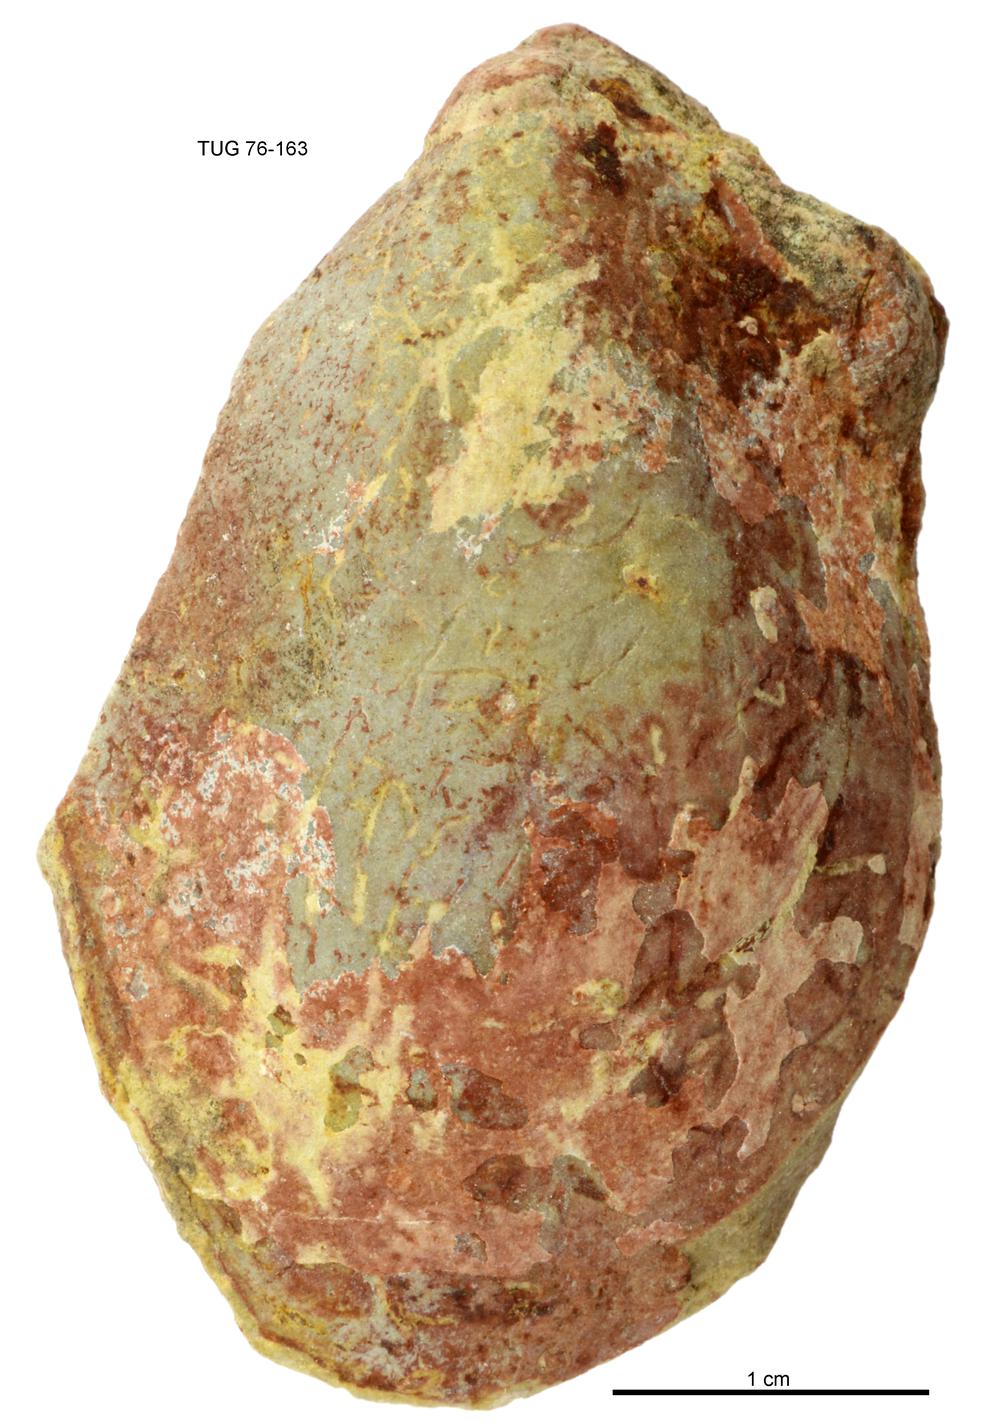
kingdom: Animalia
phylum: Mollusca
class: Bivalvia
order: Cyrtodontida
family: Cyrtodontidae
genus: Cypricardites
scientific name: Cypricardites
